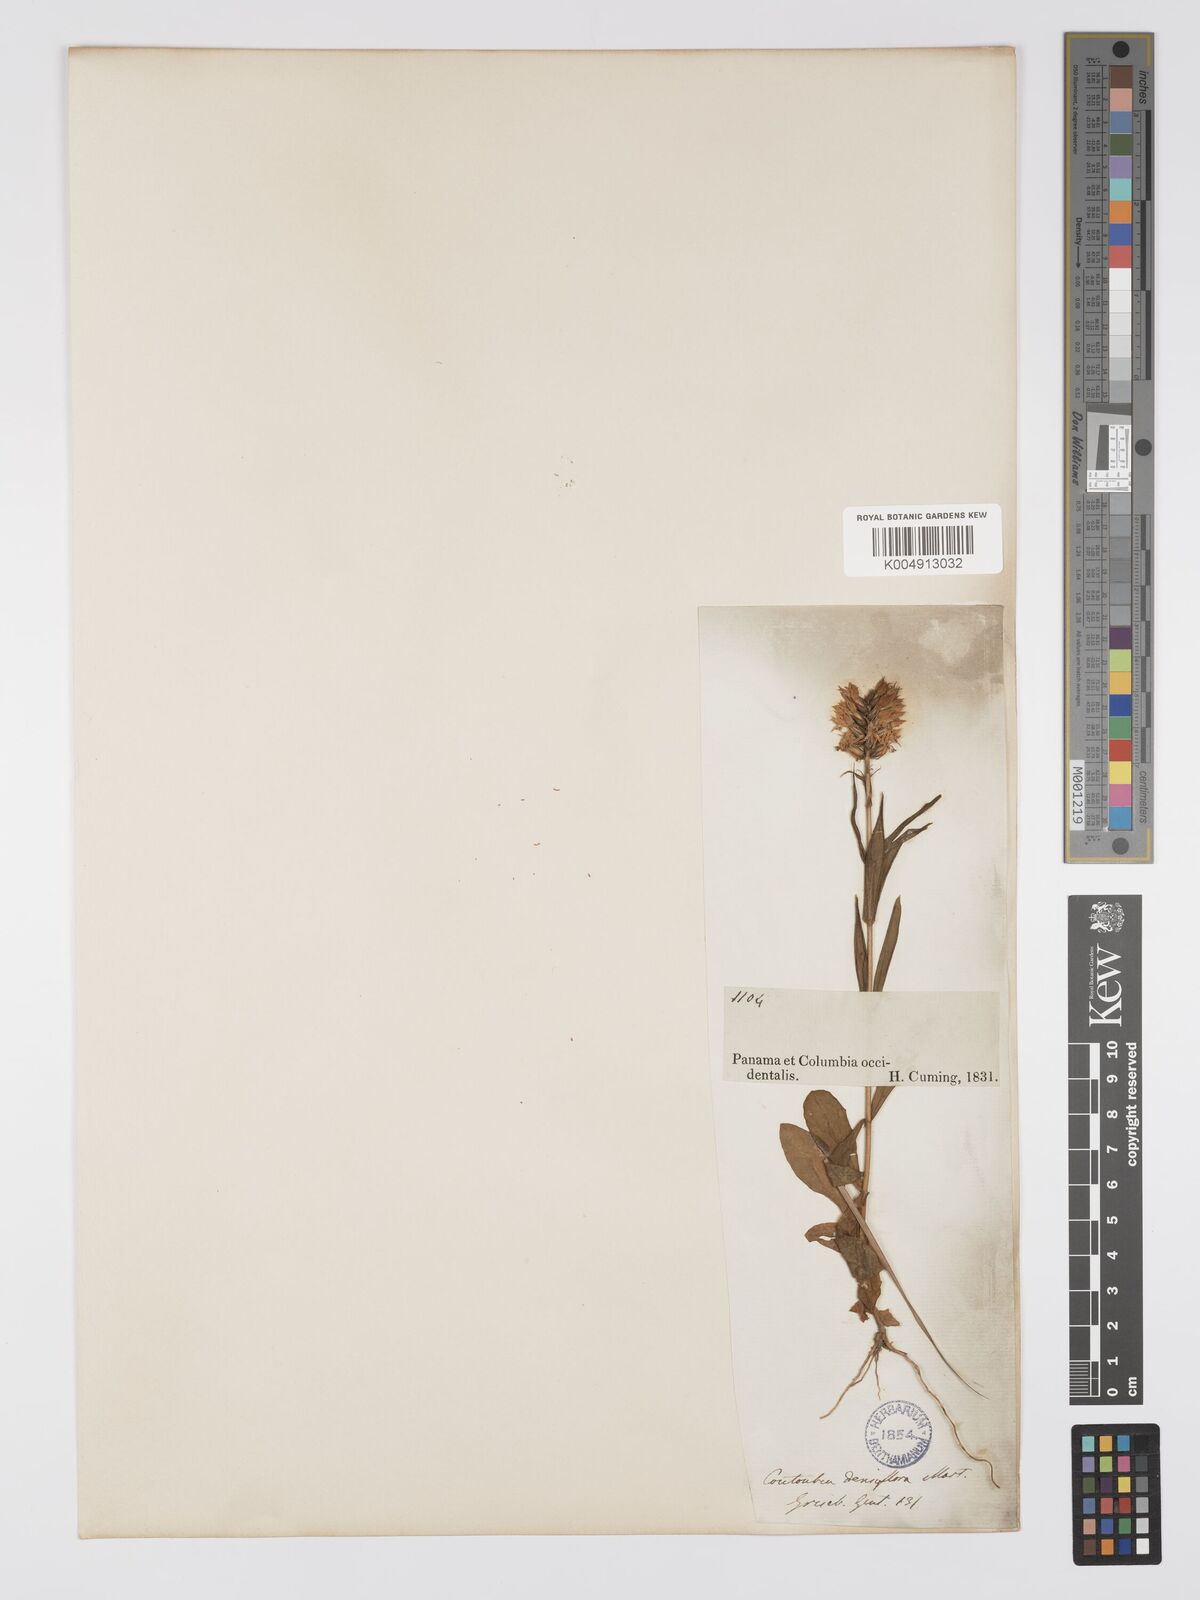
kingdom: Plantae
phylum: Tracheophyta
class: Magnoliopsida
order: Gentianales
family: Gentianaceae
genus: Coutoubea
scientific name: Coutoubea spicata
